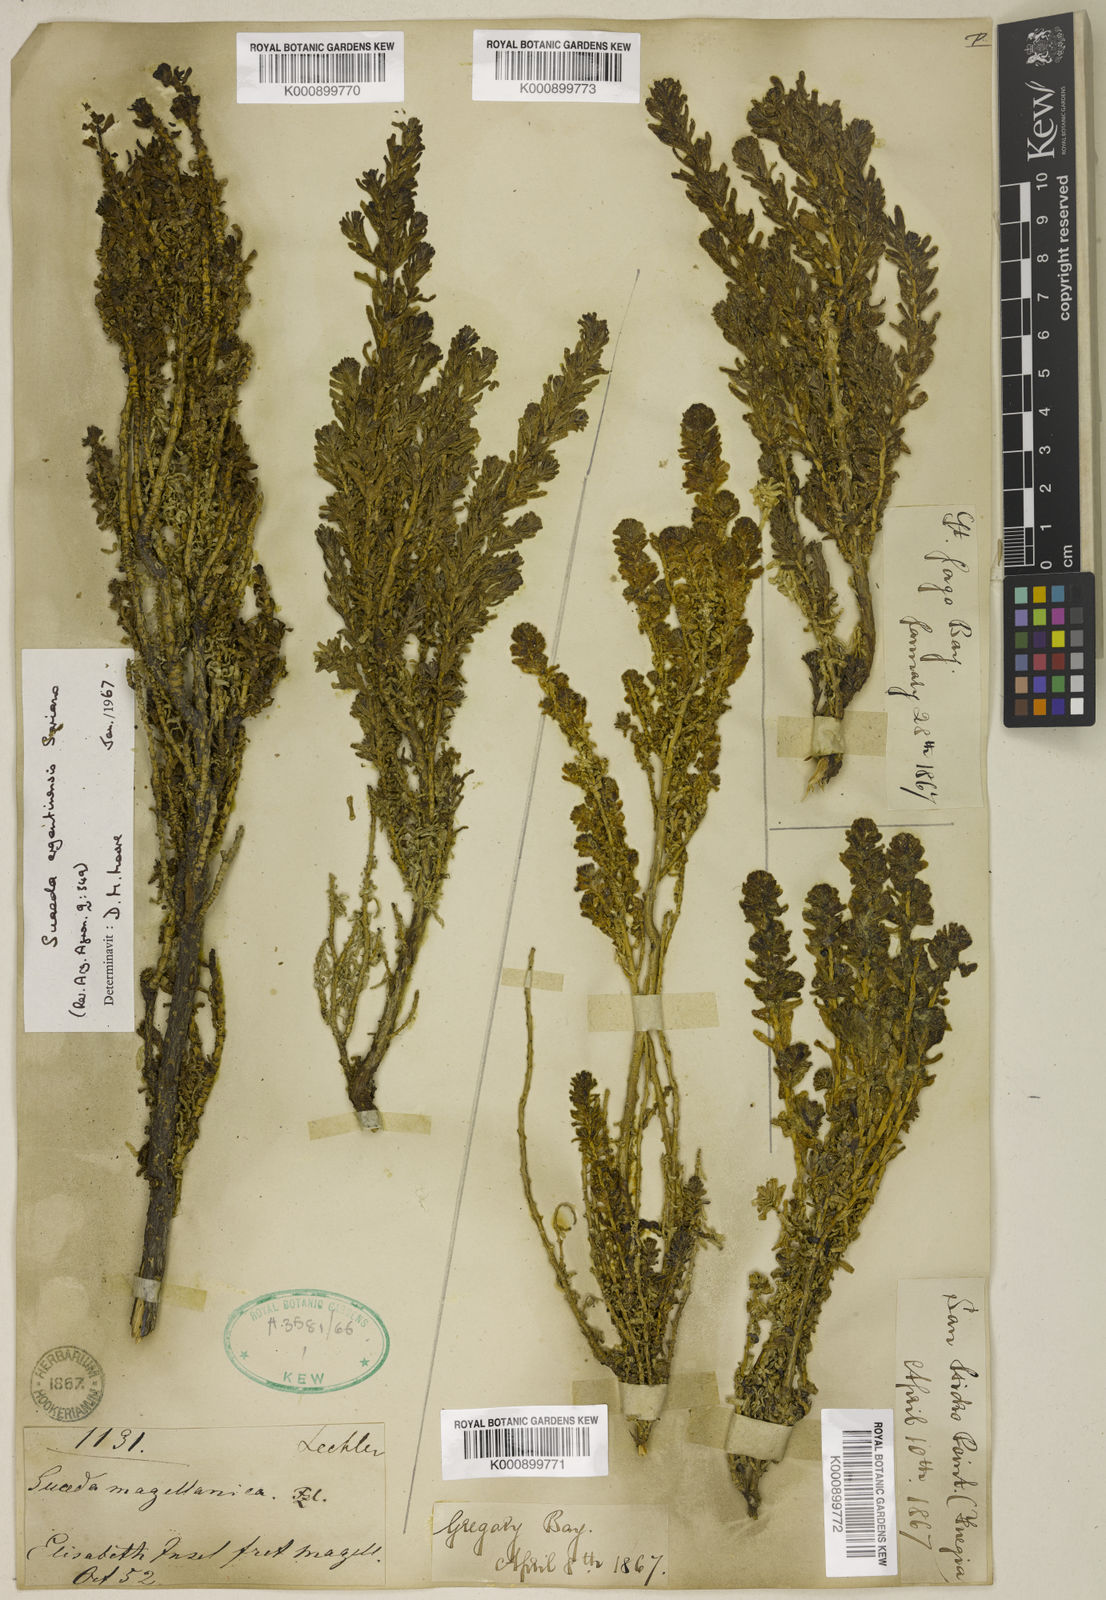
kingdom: Plantae
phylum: Tracheophyta
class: Magnoliopsida
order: Caryophyllales
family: Amaranthaceae
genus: Suaeda
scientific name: Suaeda
